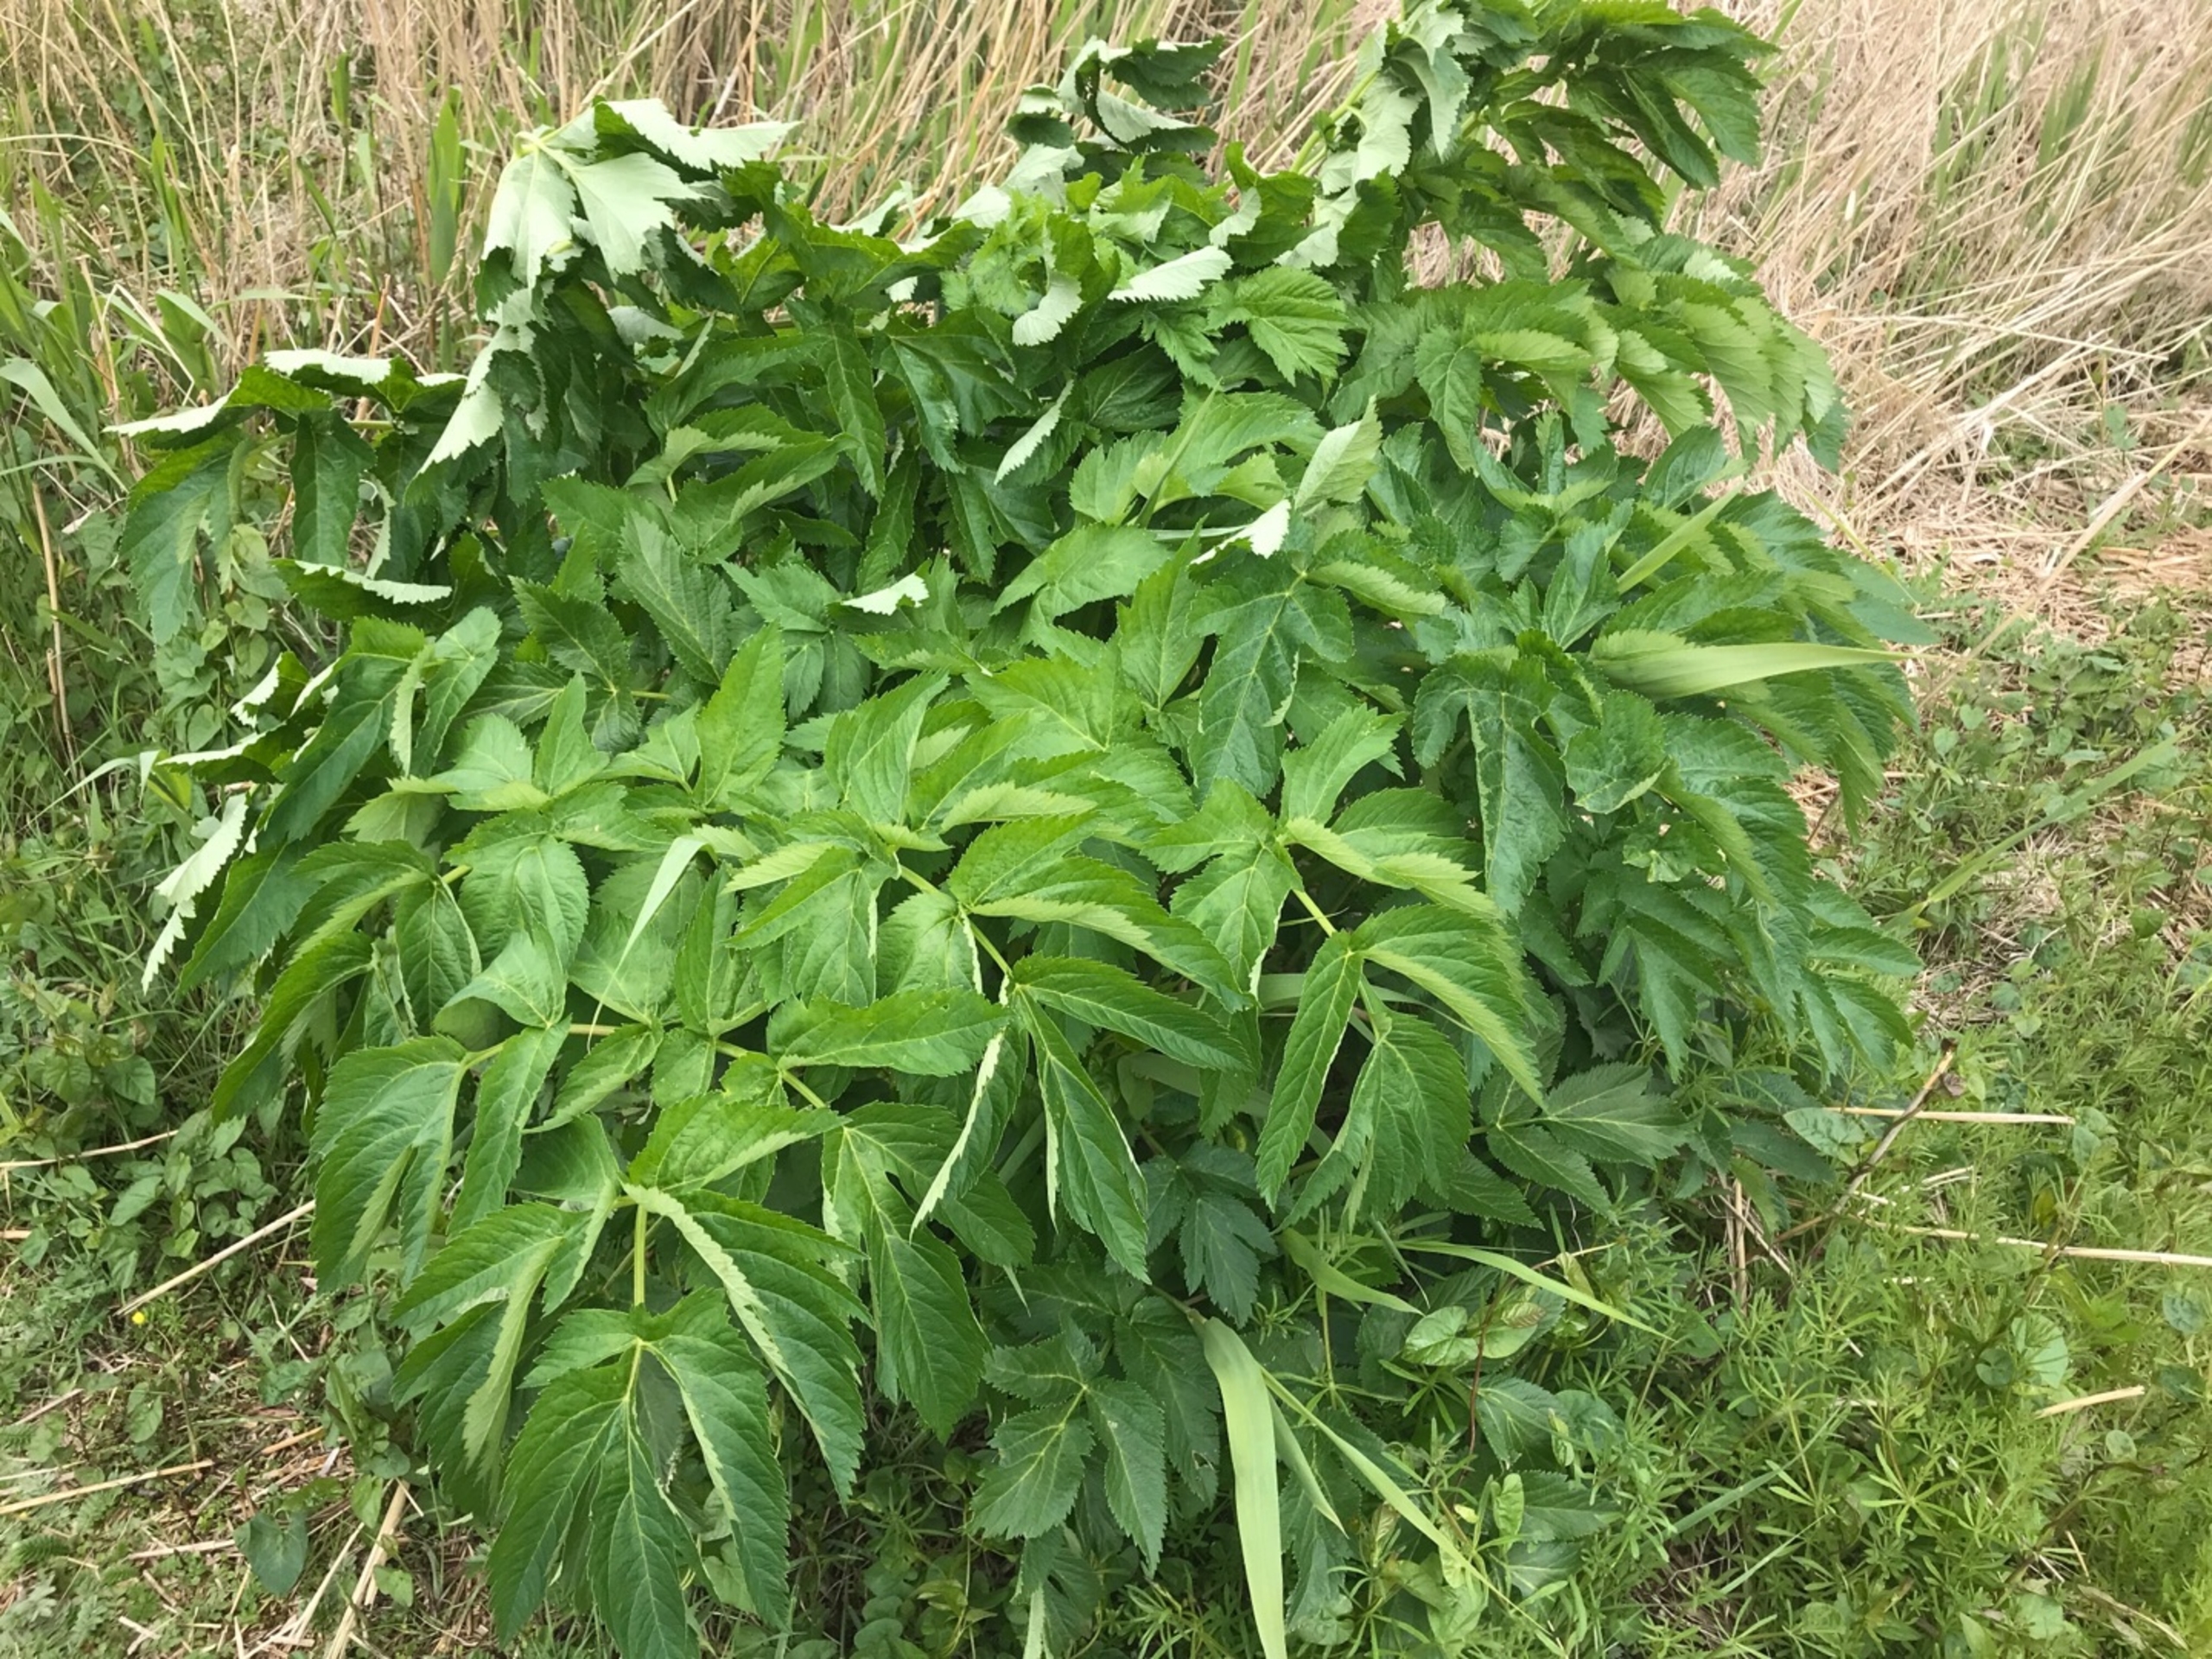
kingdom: Plantae
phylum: Tracheophyta
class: Magnoliopsida
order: Apiales
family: Apiaceae
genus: Angelica
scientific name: Angelica archangelica
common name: Kvan
